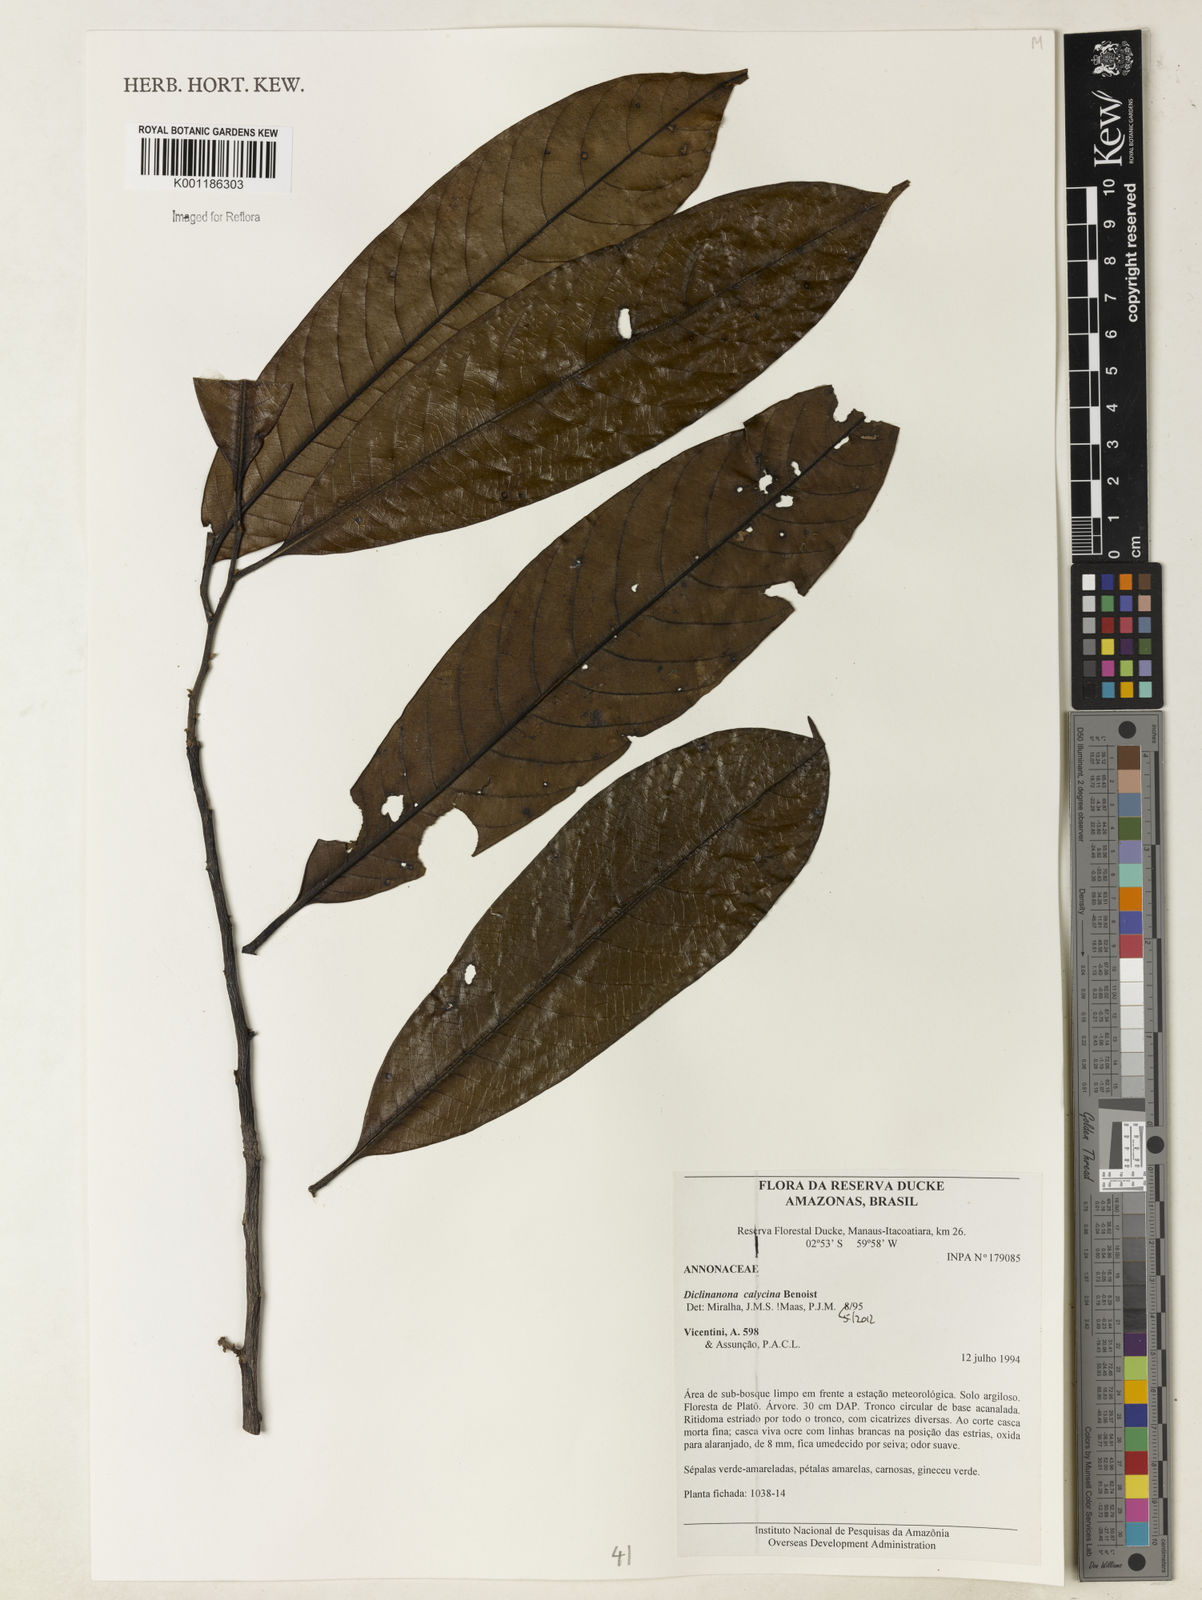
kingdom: Plantae
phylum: Tracheophyta
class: Magnoliopsida
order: Magnoliales
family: Annonaceae
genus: Diclinanona
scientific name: Diclinanona calycina
